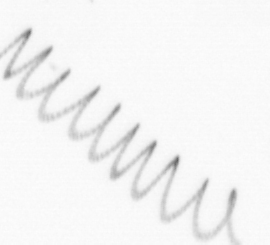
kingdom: Chromista
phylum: Ochrophyta
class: Bacillariophyceae
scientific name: Bacillariophyceae
